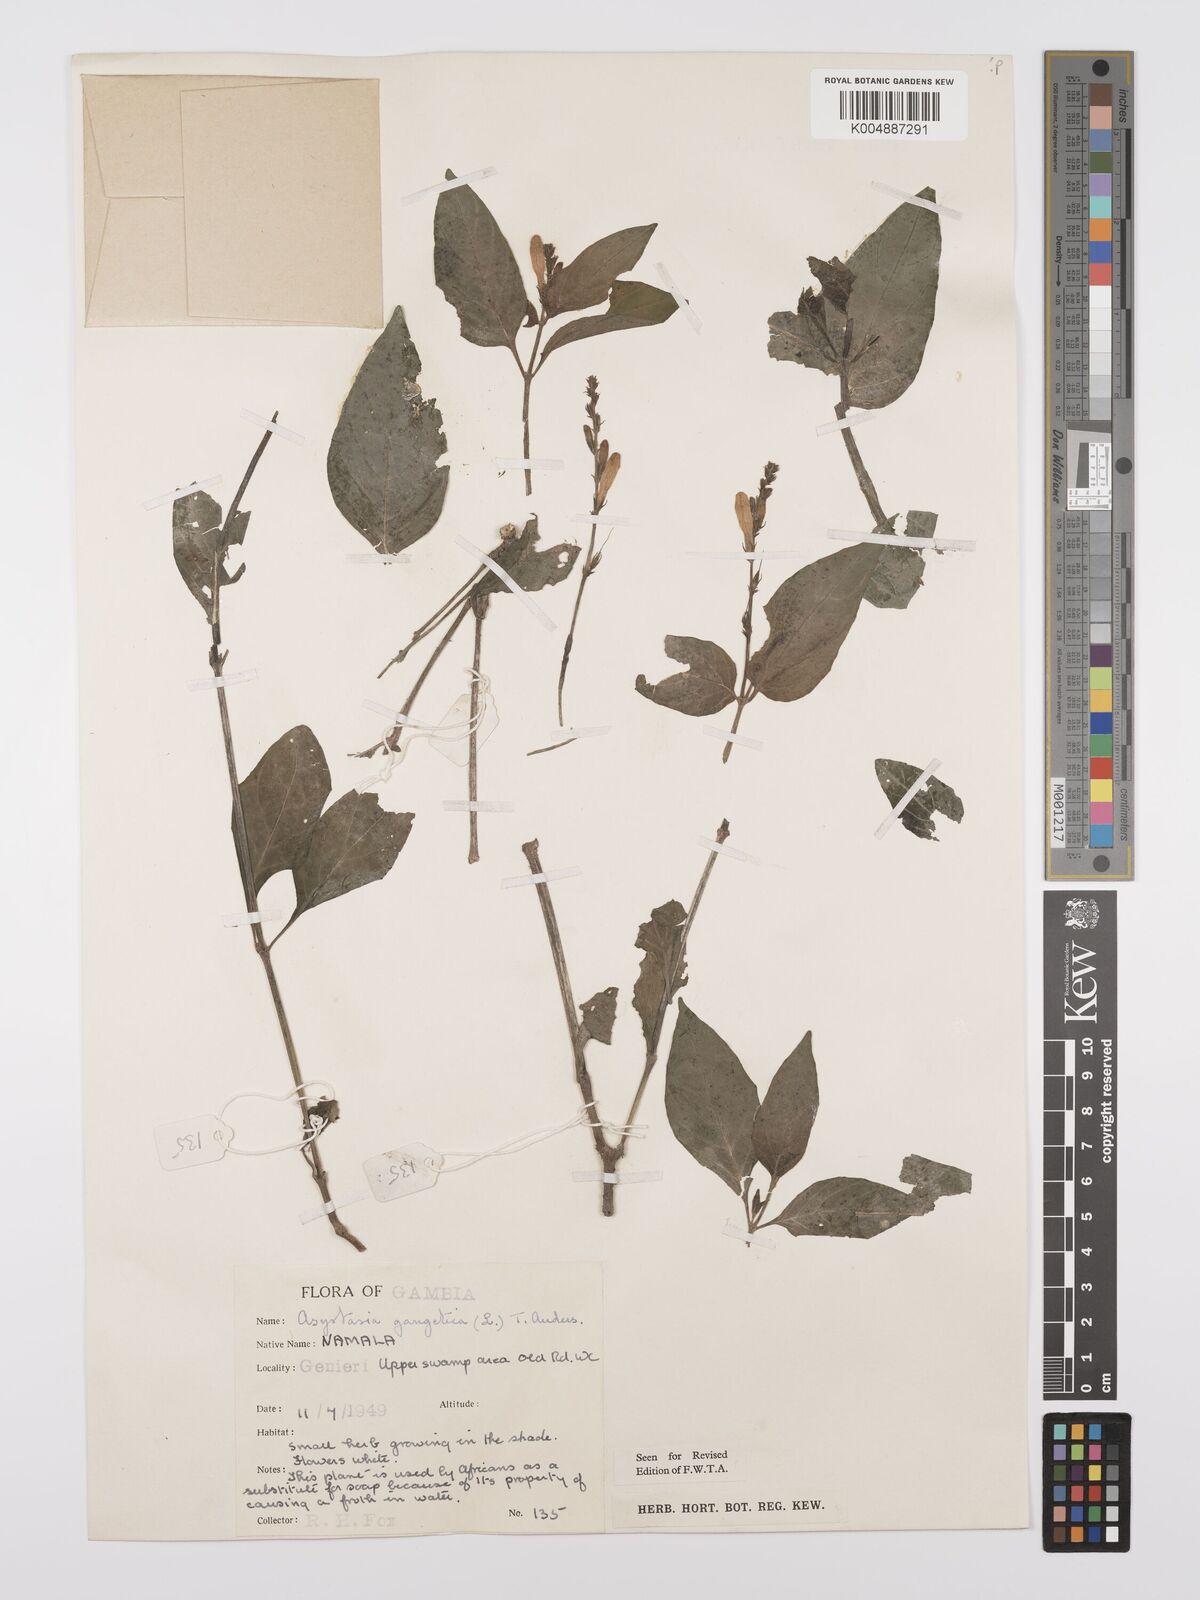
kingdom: Plantae
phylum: Tracheophyta
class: Magnoliopsida
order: Lamiales
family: Acanthaceae
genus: Asystasia
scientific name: Asystasia gangetica
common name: Chinese violet
